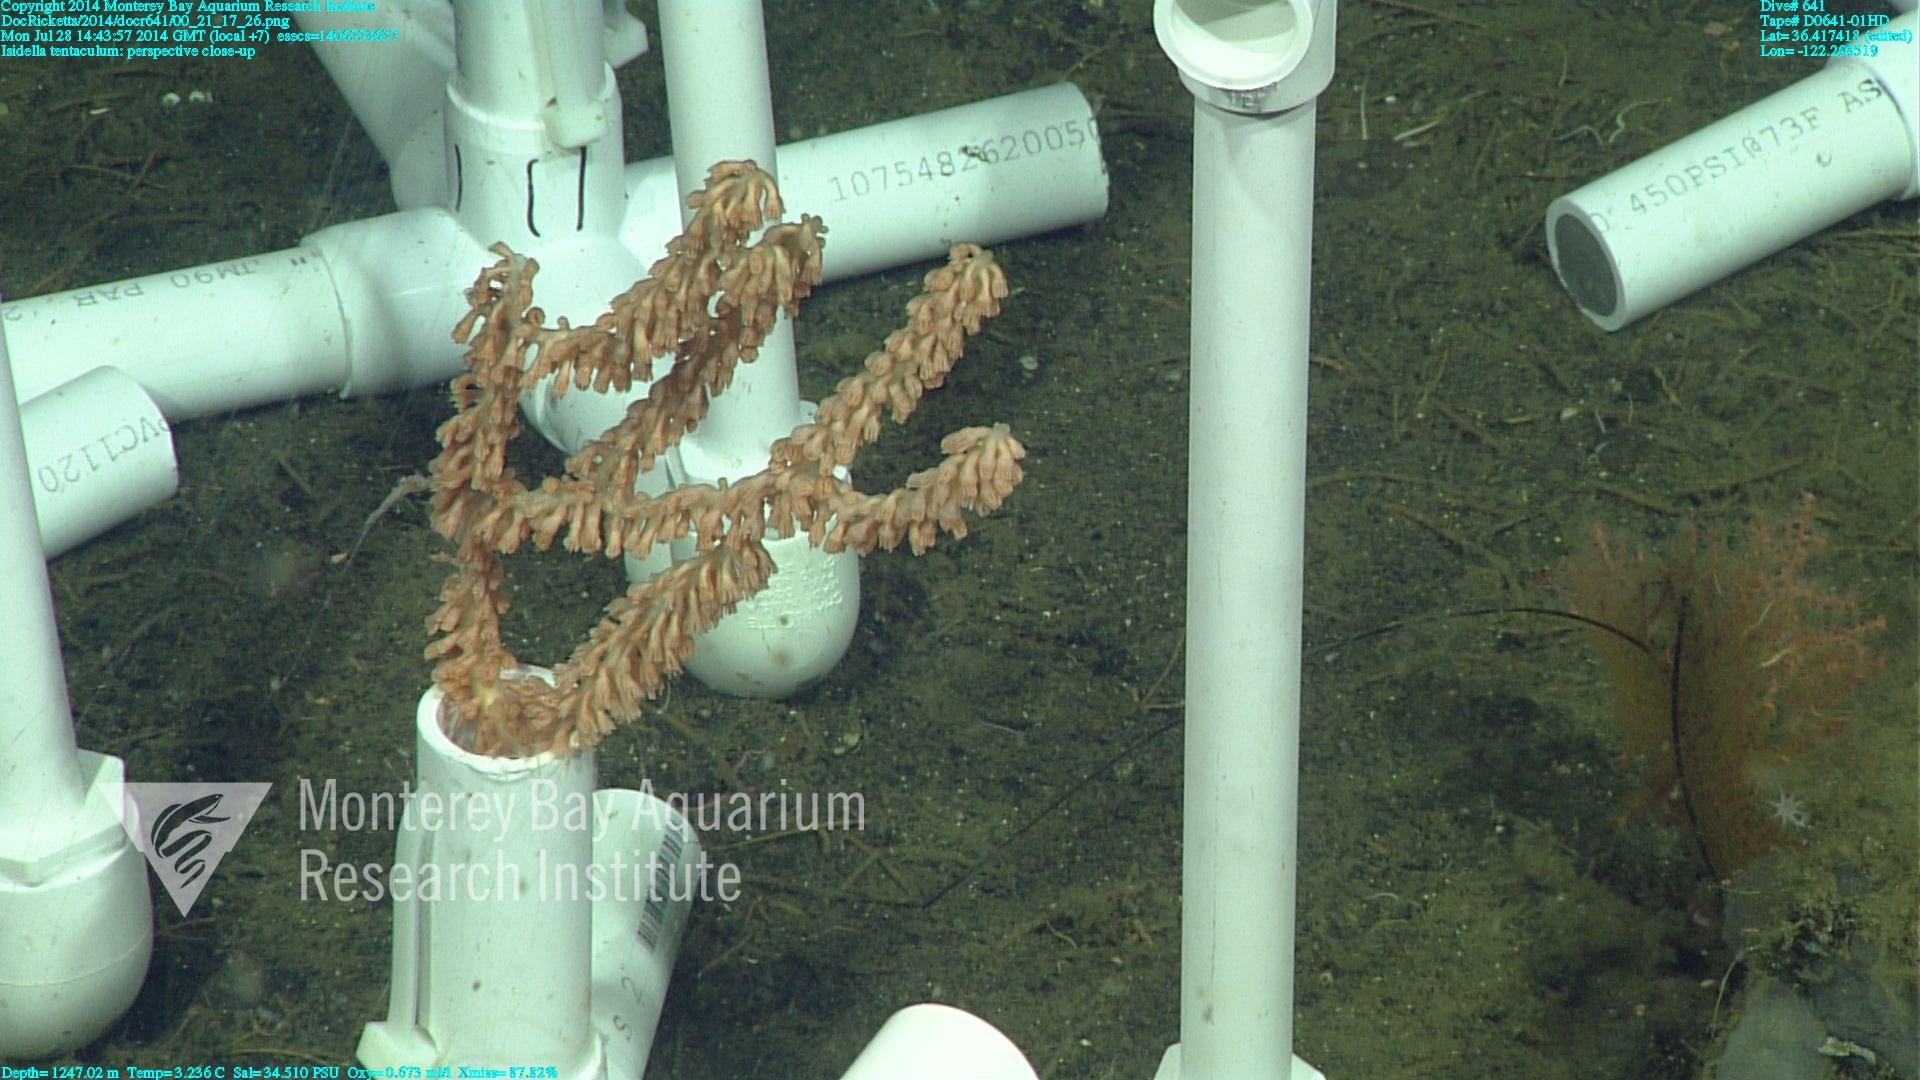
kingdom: Animalia
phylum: Cnidaria
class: Anthozoa
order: Scleralcyonacea
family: Keratoisididae
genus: Isidella
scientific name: Isidella tentaculum
